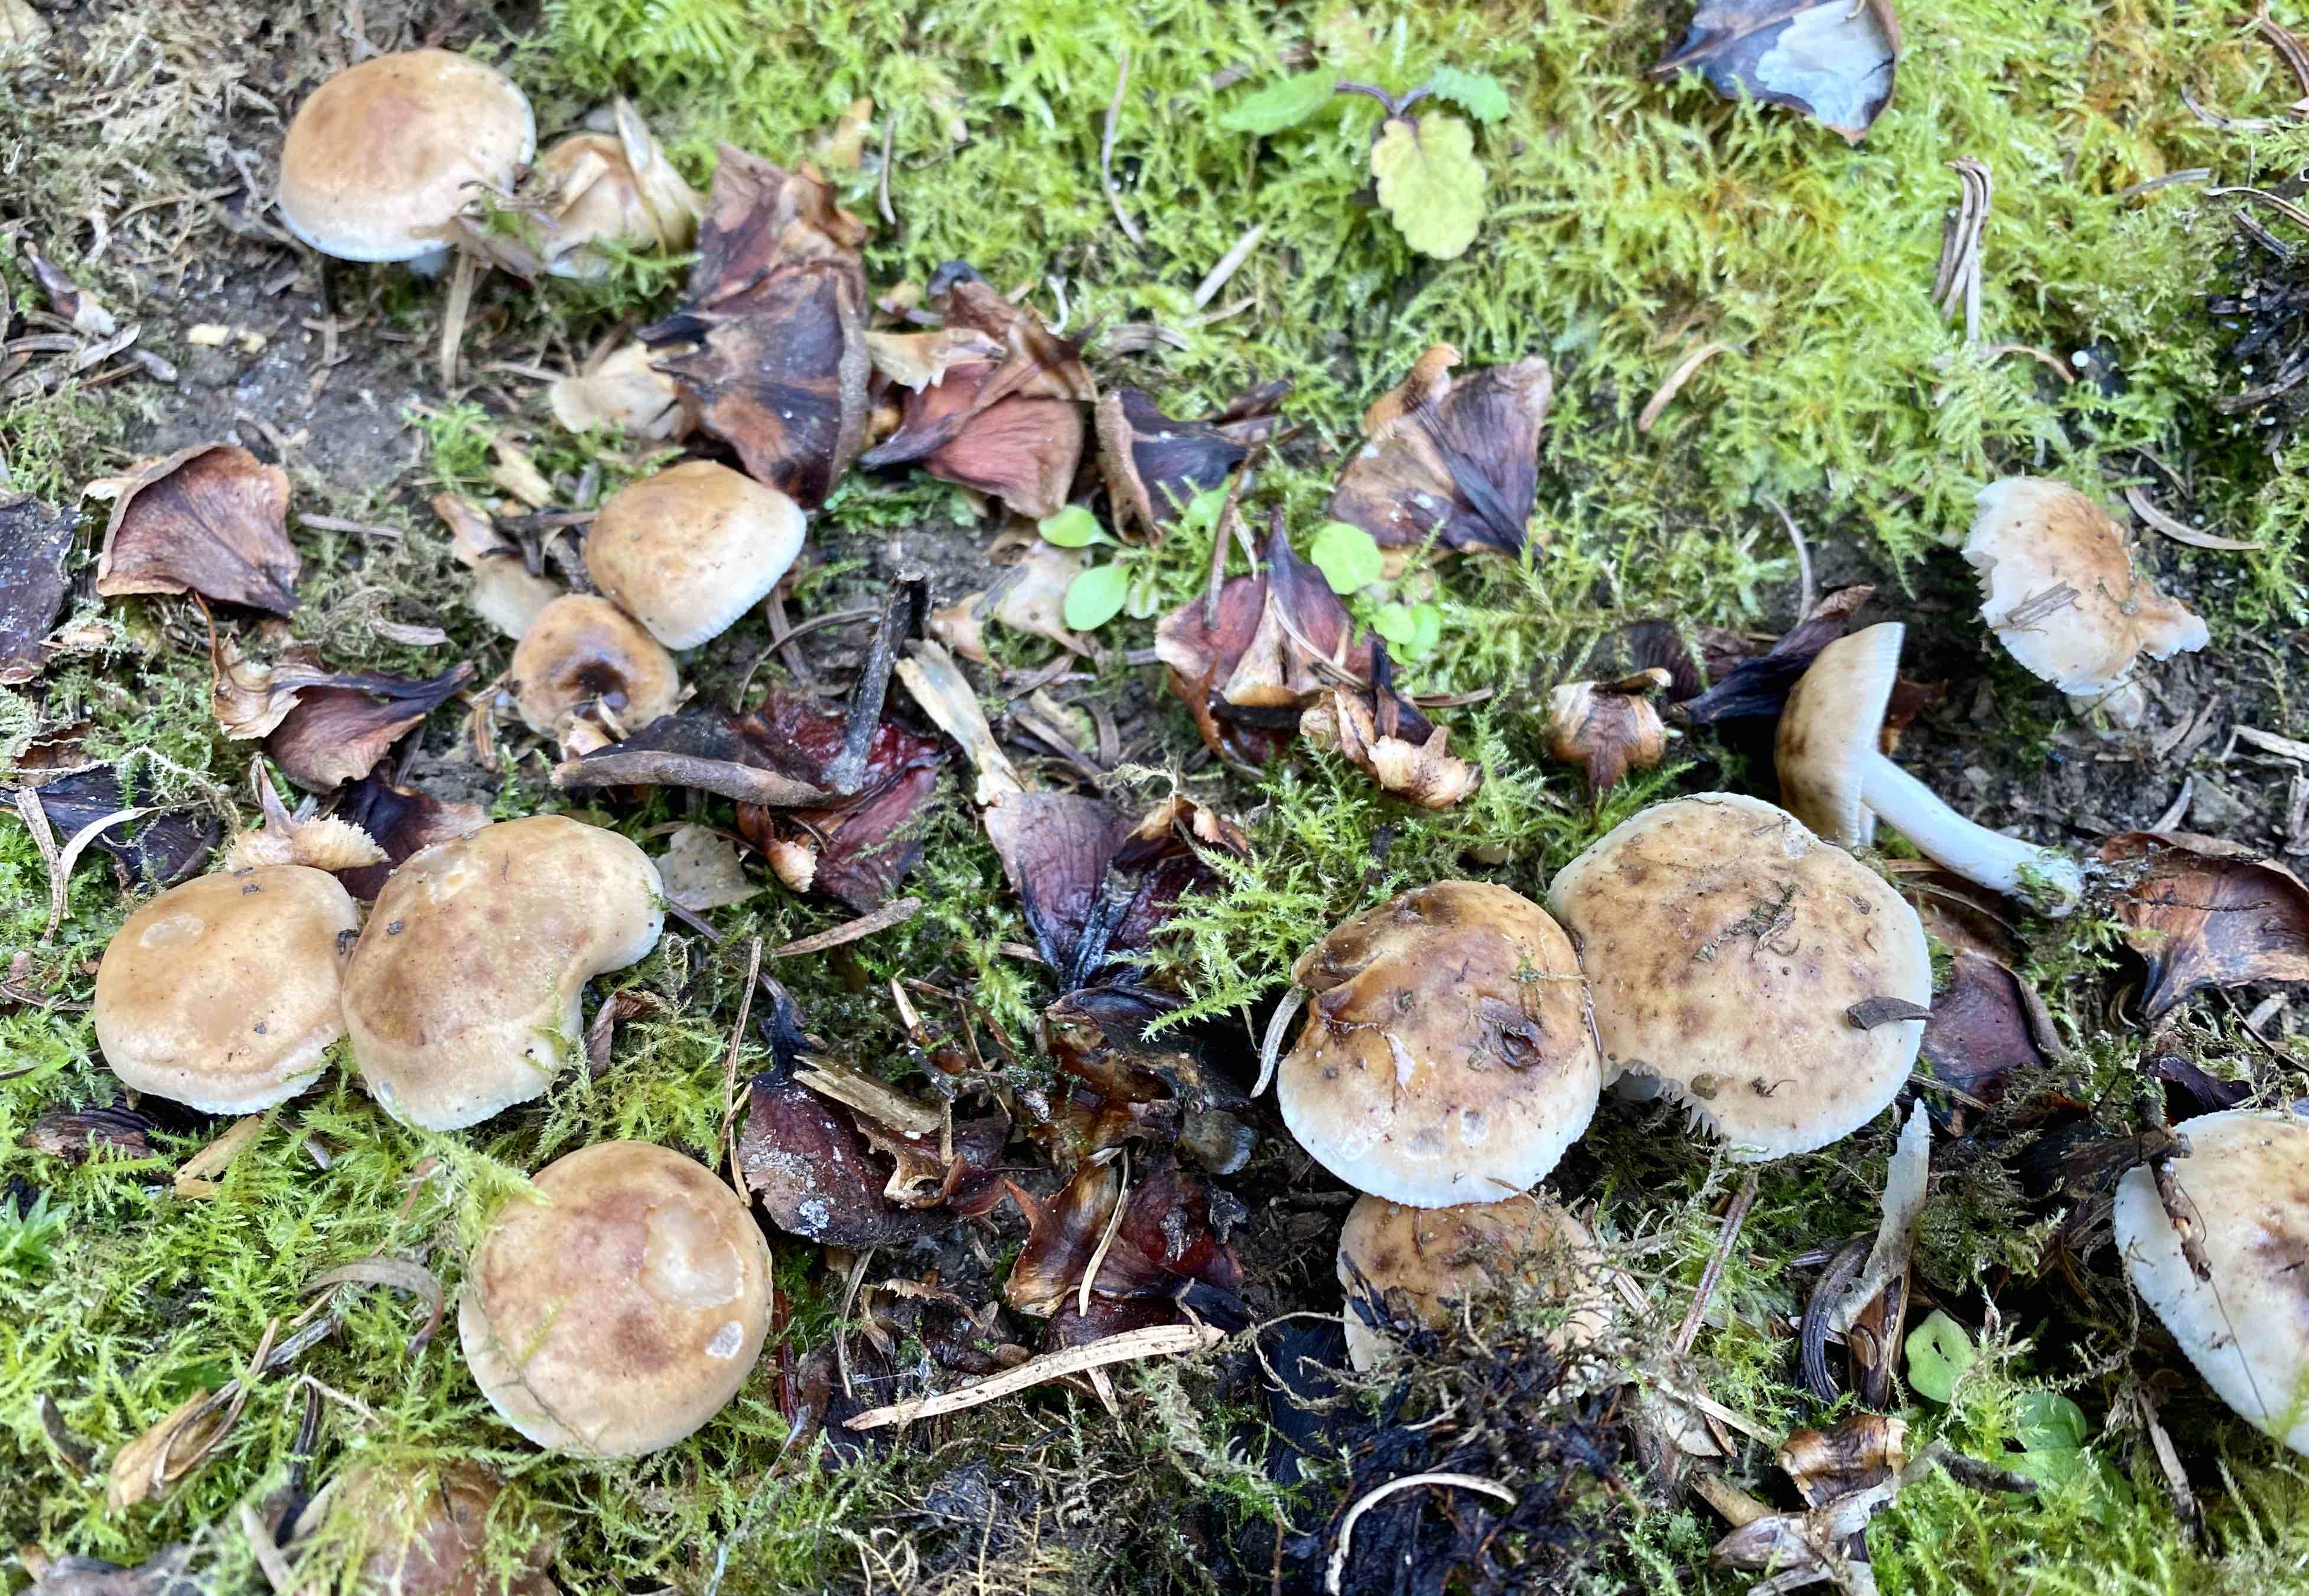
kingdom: Fungi
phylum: Basidiomycota
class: Agaricomycetes
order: Agaricales
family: Hymenogastraceae
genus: Hebeloma
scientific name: Hebeloma
